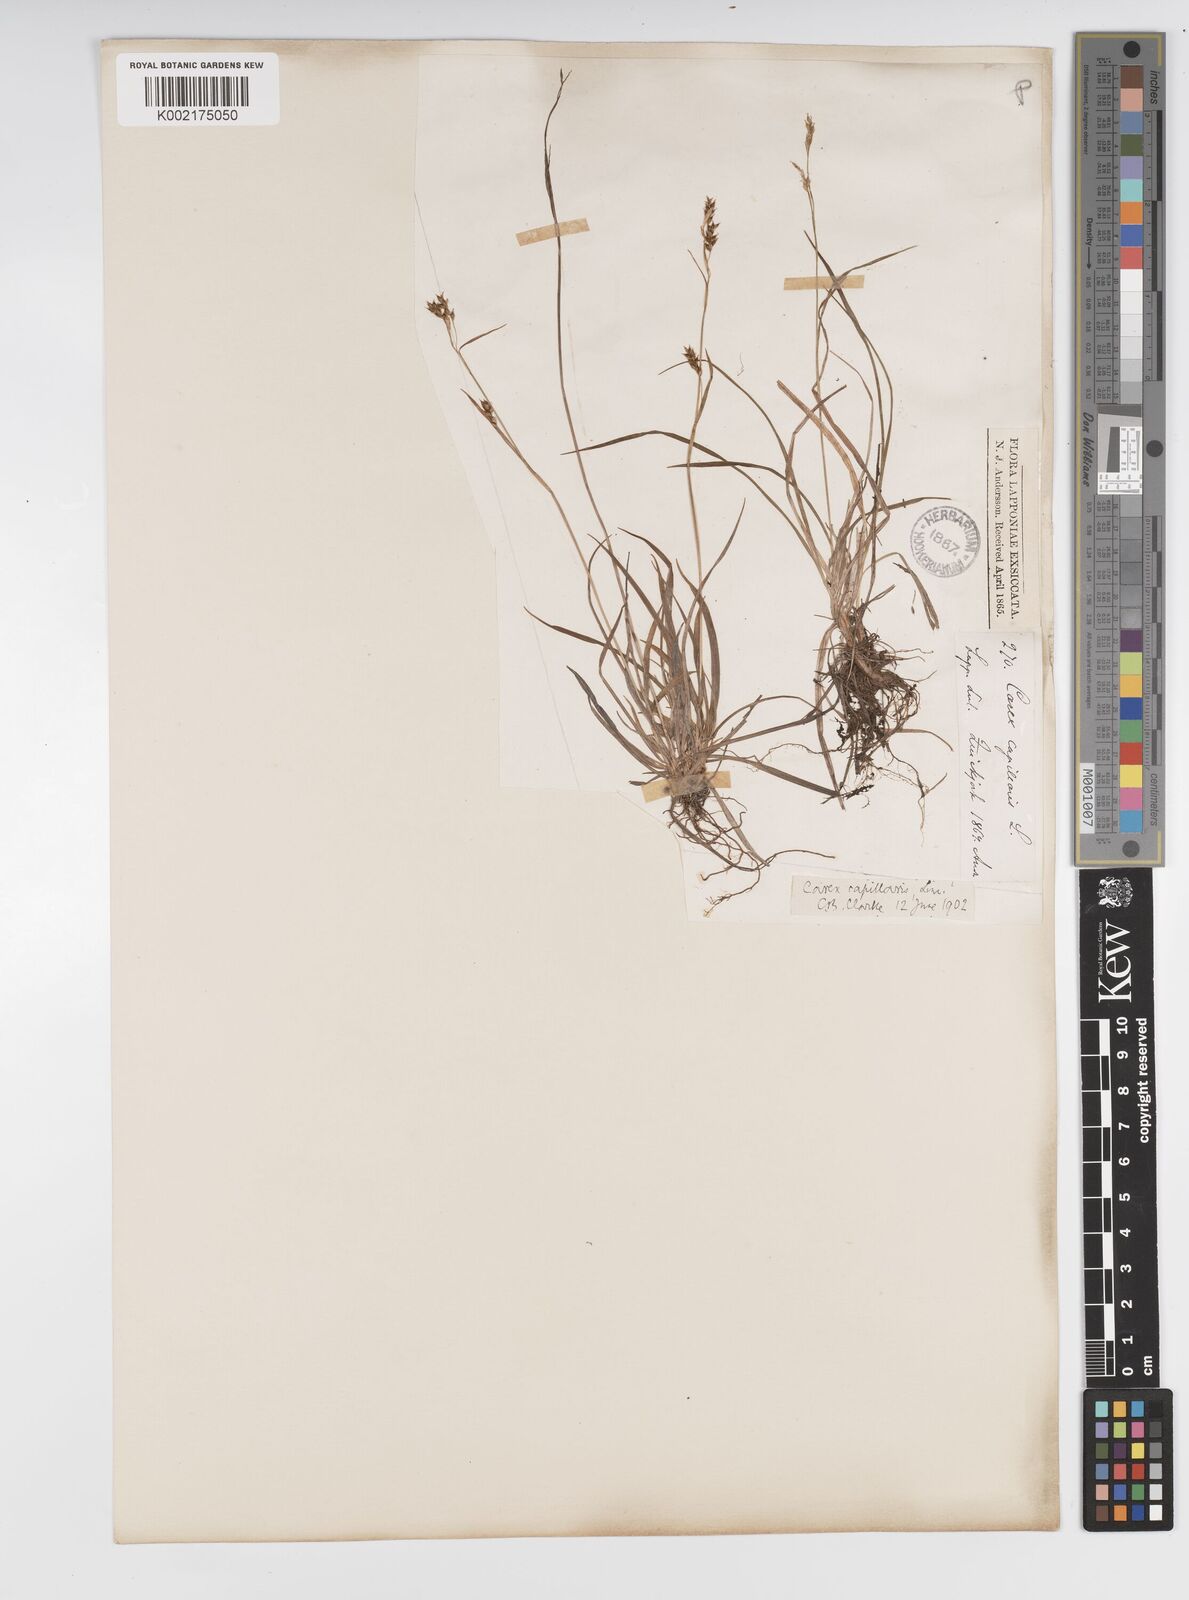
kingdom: Plantae
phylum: Tracheophyta
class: Liliopsida
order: Poales
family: Cyperaceae
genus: Carex
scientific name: Carex capillaris
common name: Hair sedge
